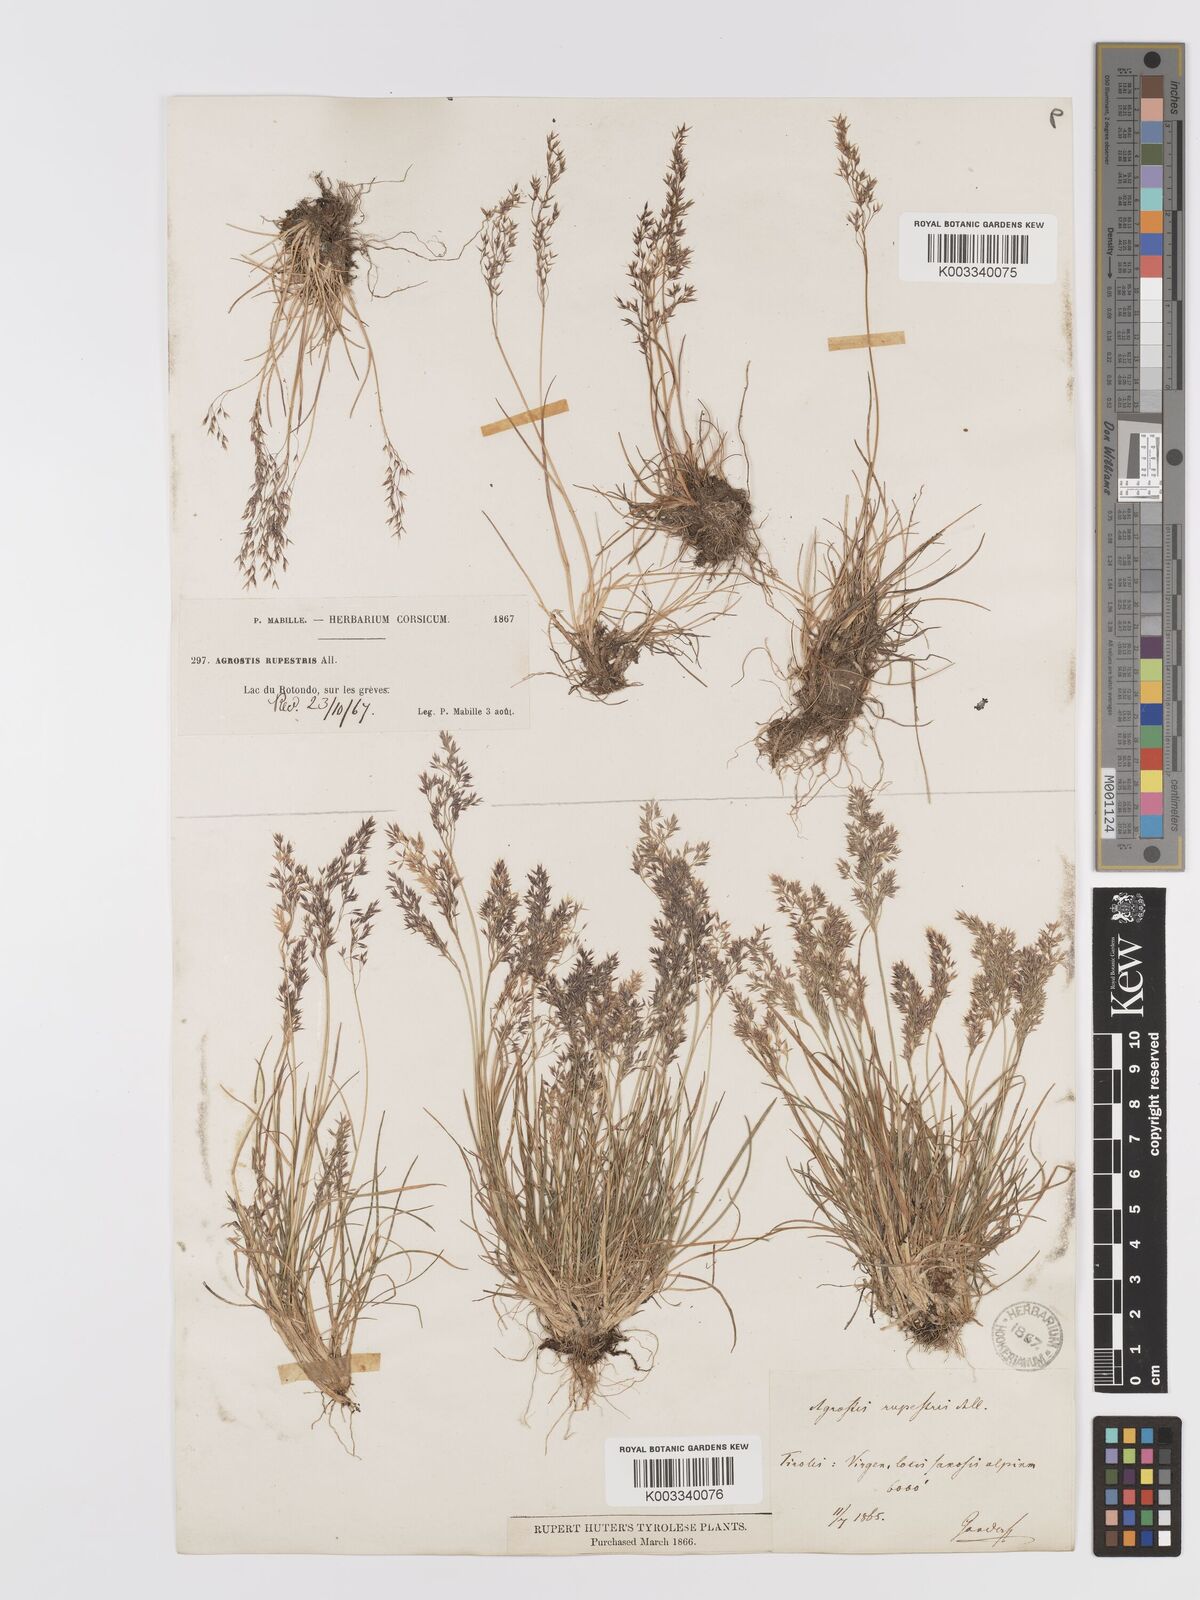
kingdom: Plantae
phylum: Tracheophyta
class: Liliopsida
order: Poales
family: Poaceae
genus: Agrostis
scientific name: Agrostis rupestris
